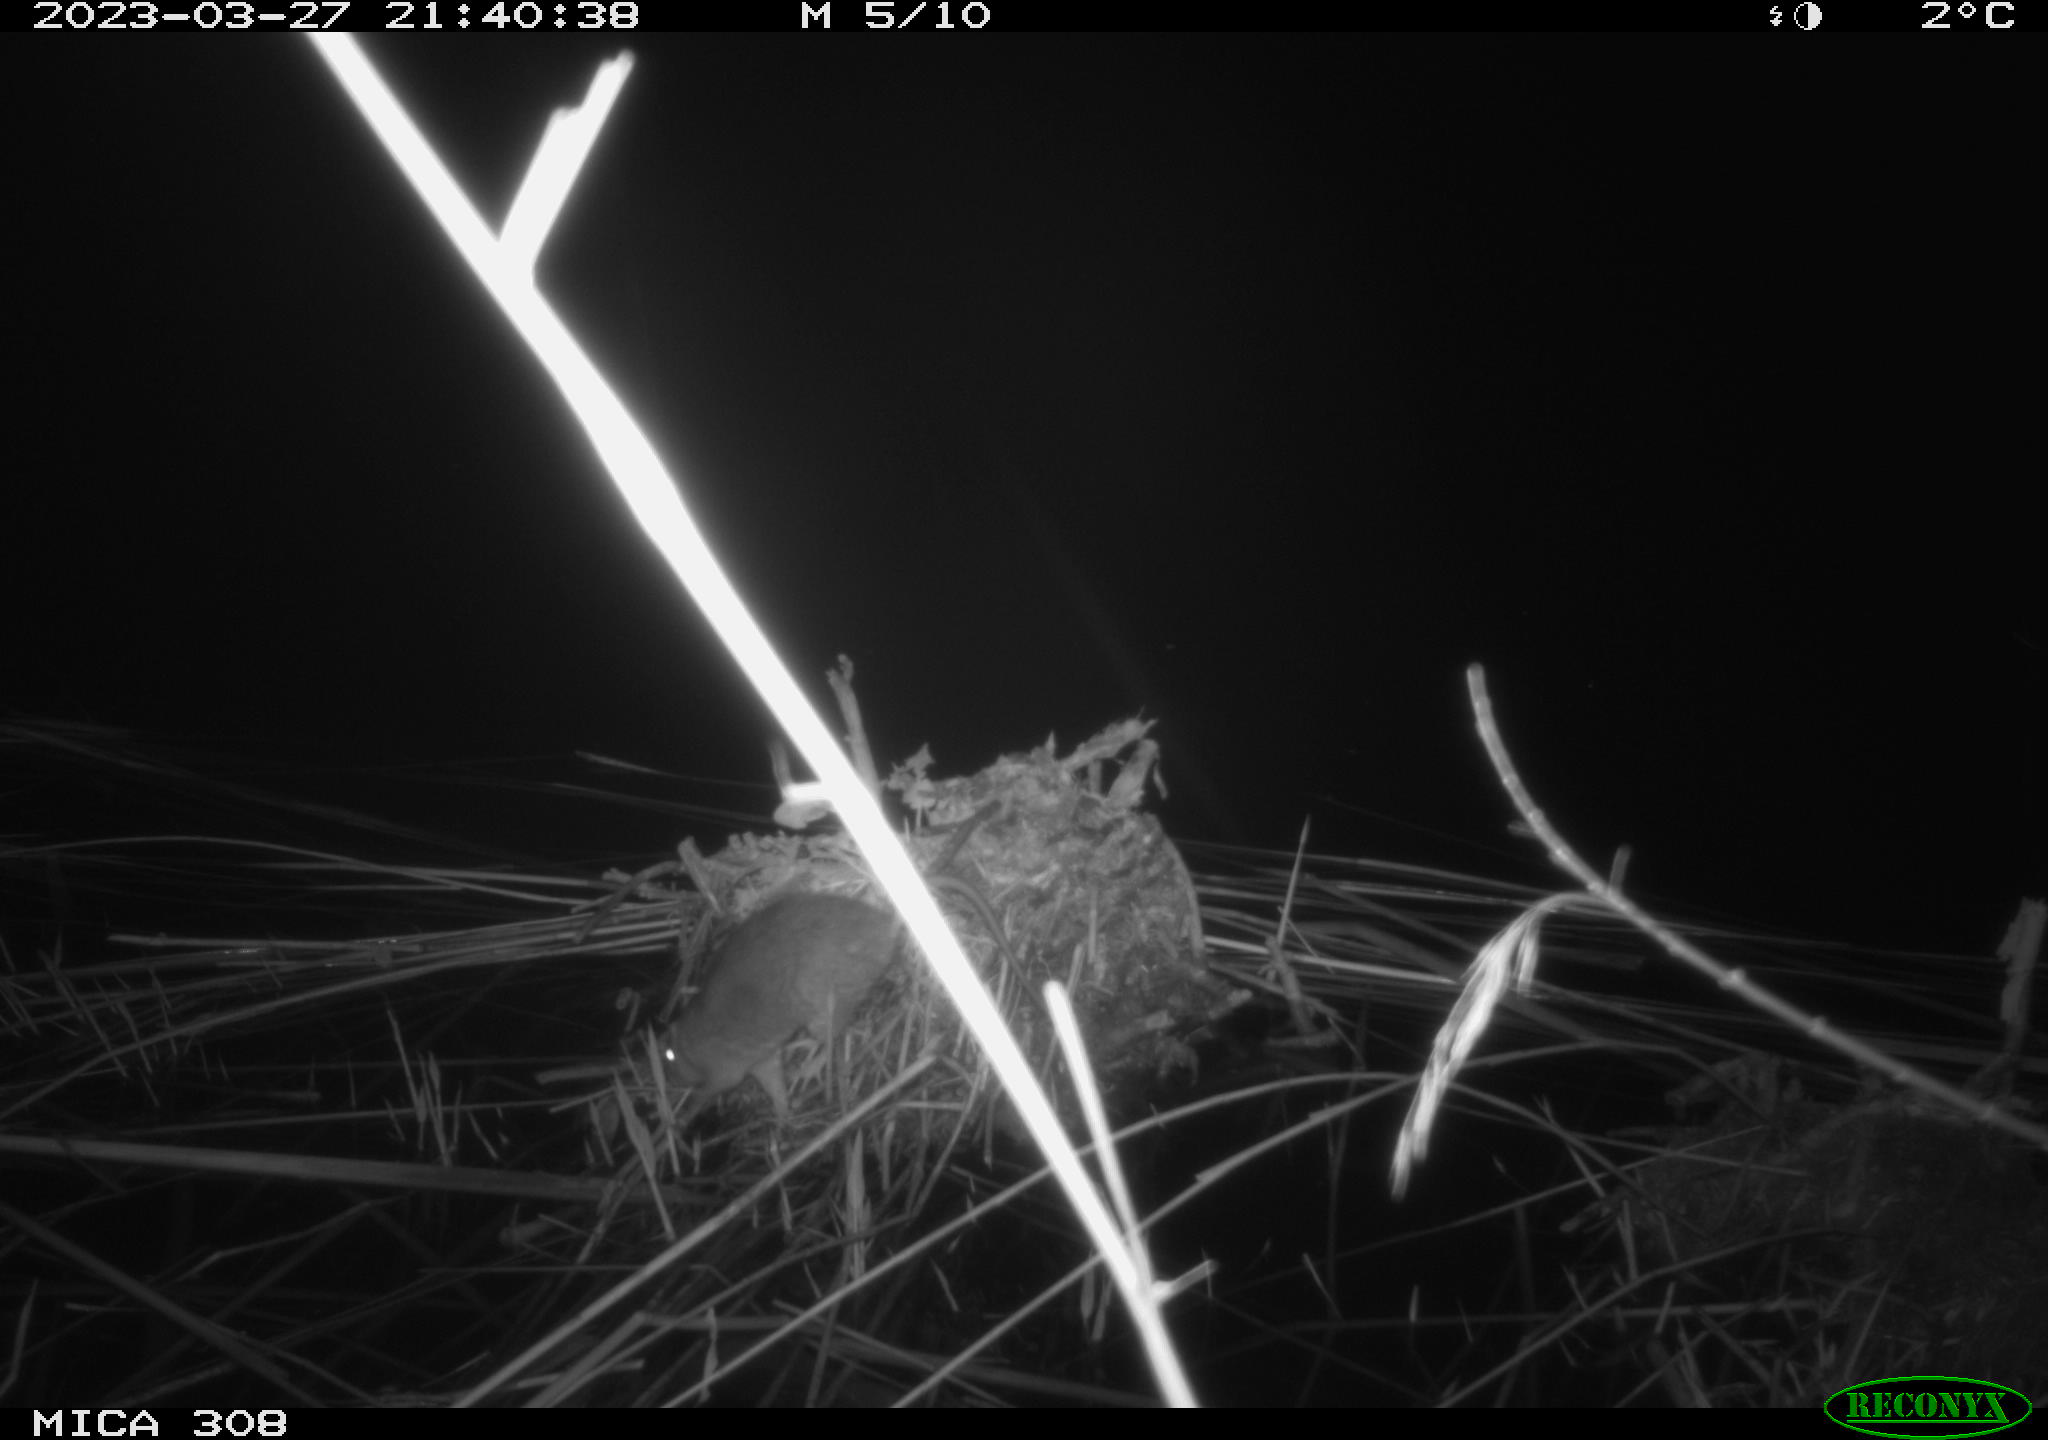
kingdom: Animalia
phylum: Chordata
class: Mammalia
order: Rodentia
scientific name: Rodentia
